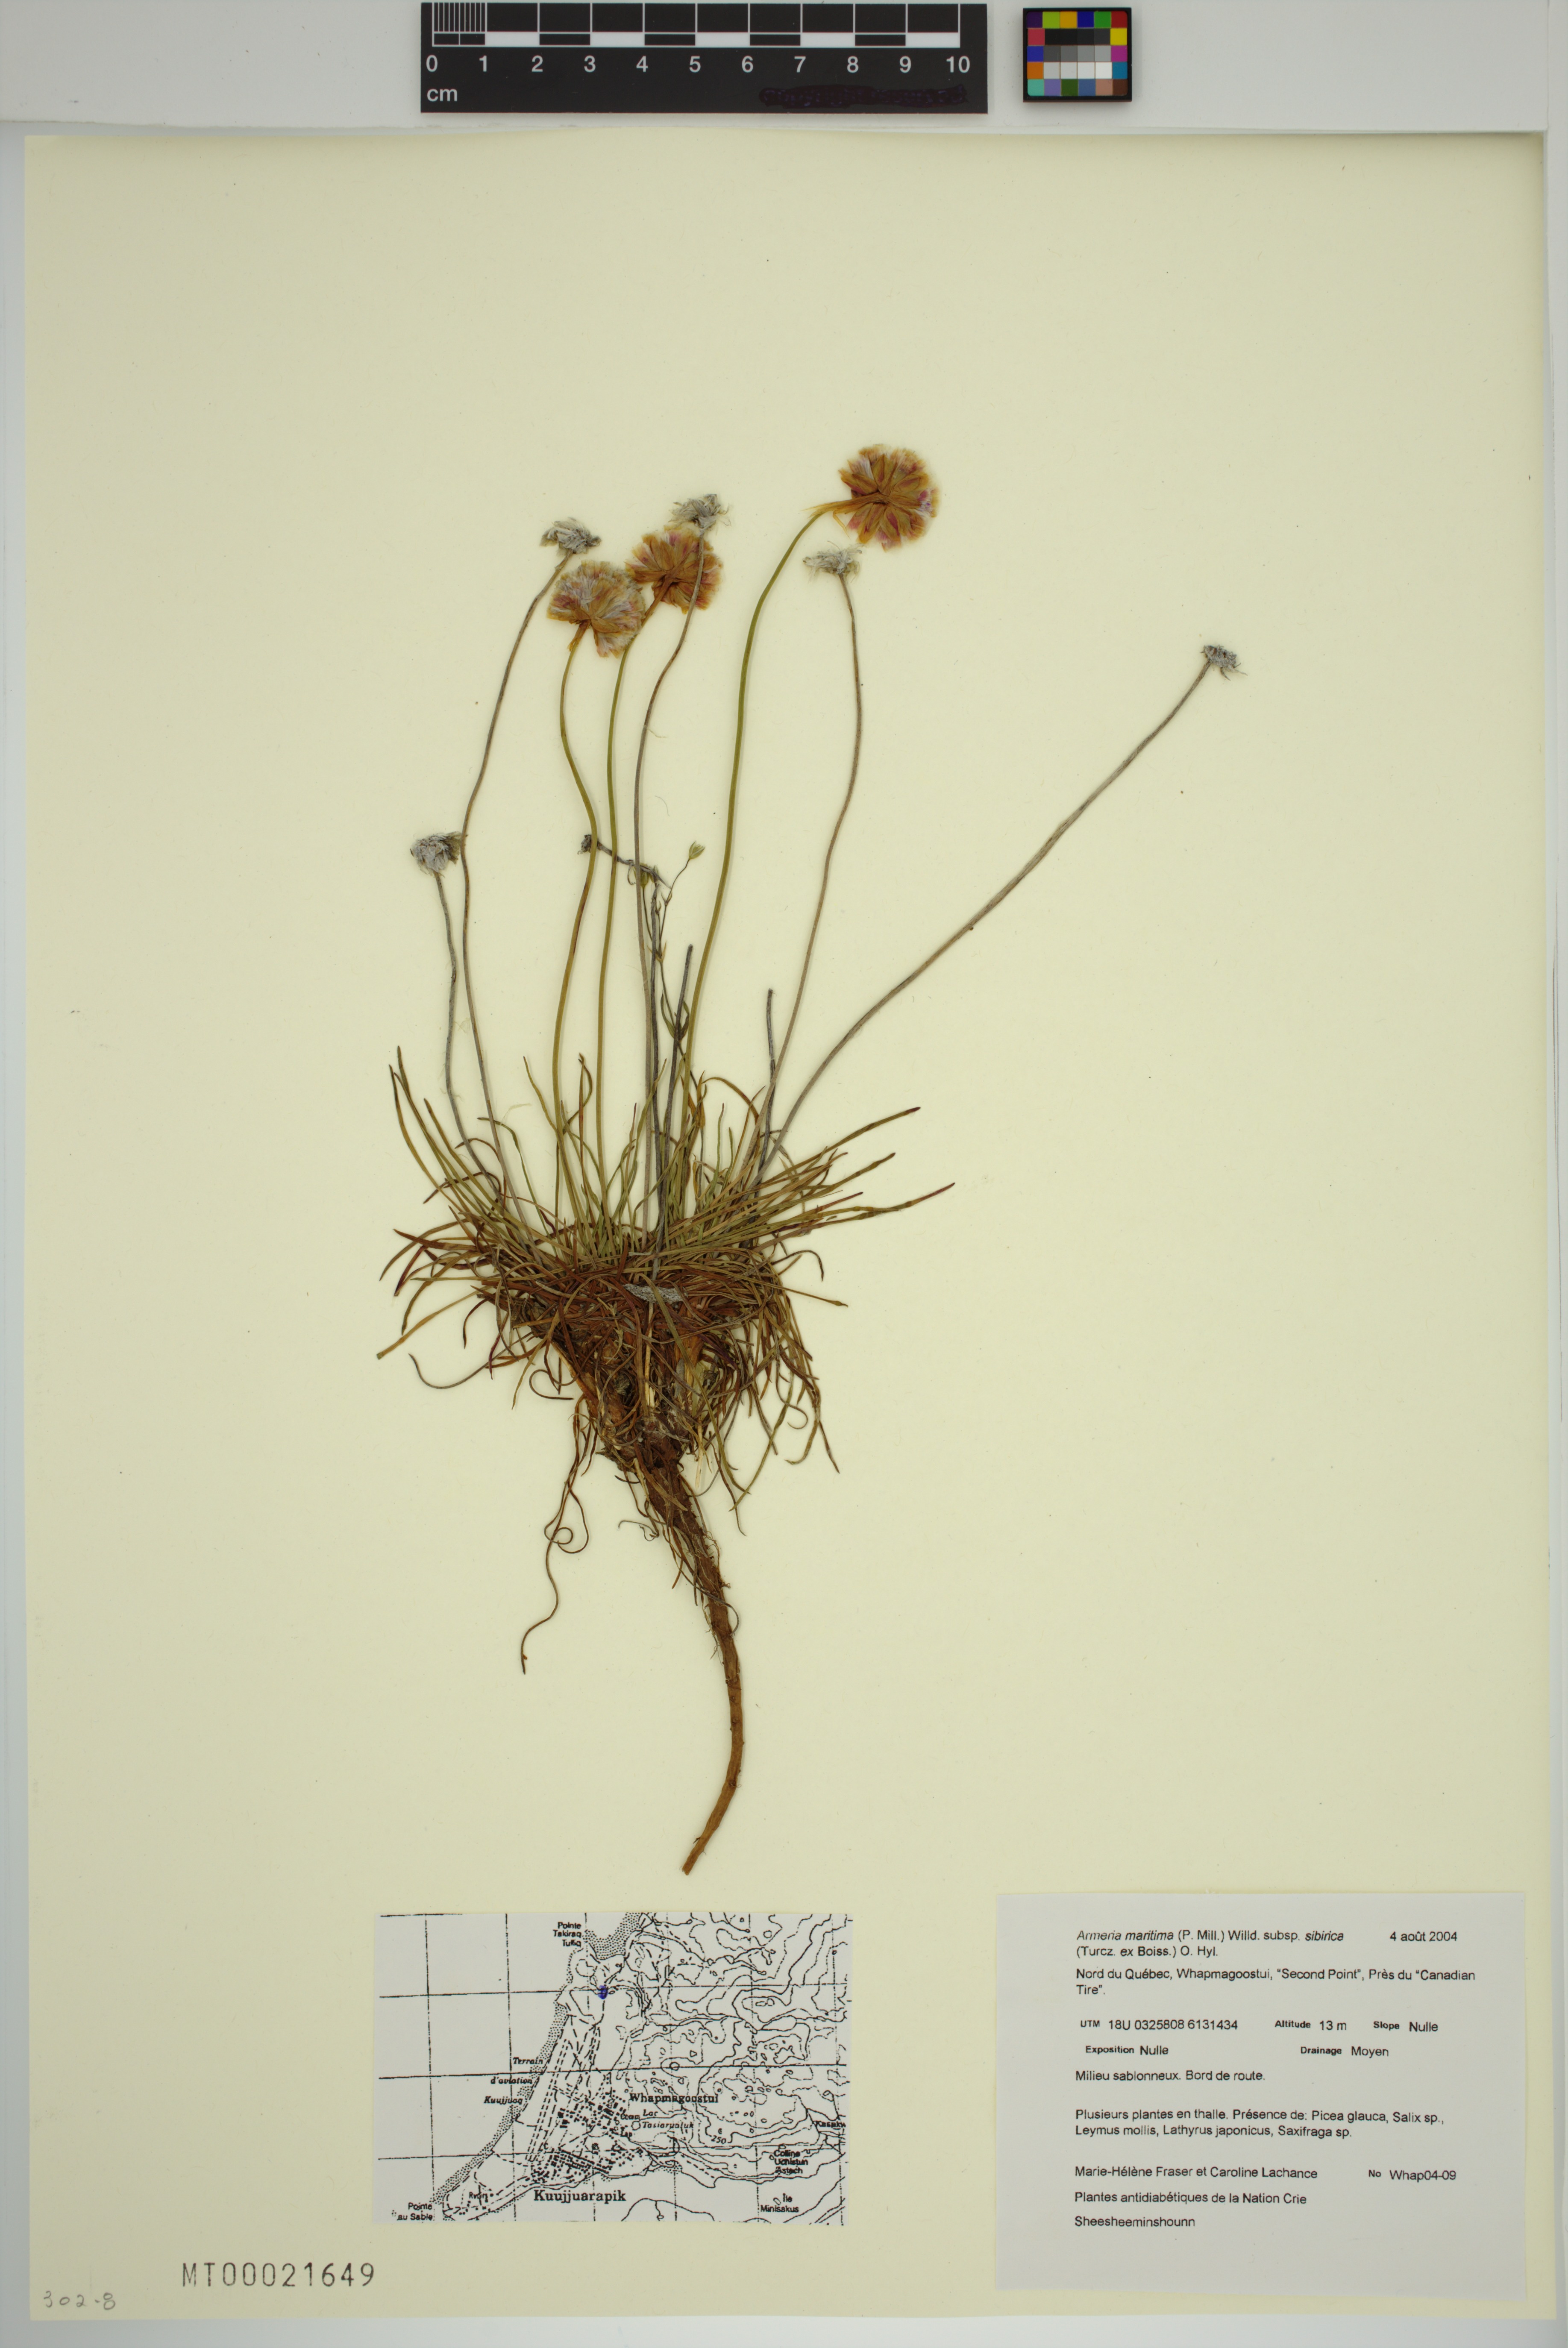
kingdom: Plantae
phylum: Tracheophyta
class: Magnoliopsida
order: Caryophyllales
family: Plumbaginaceae
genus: Armeria
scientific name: Armeria maritima
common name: Thrift
